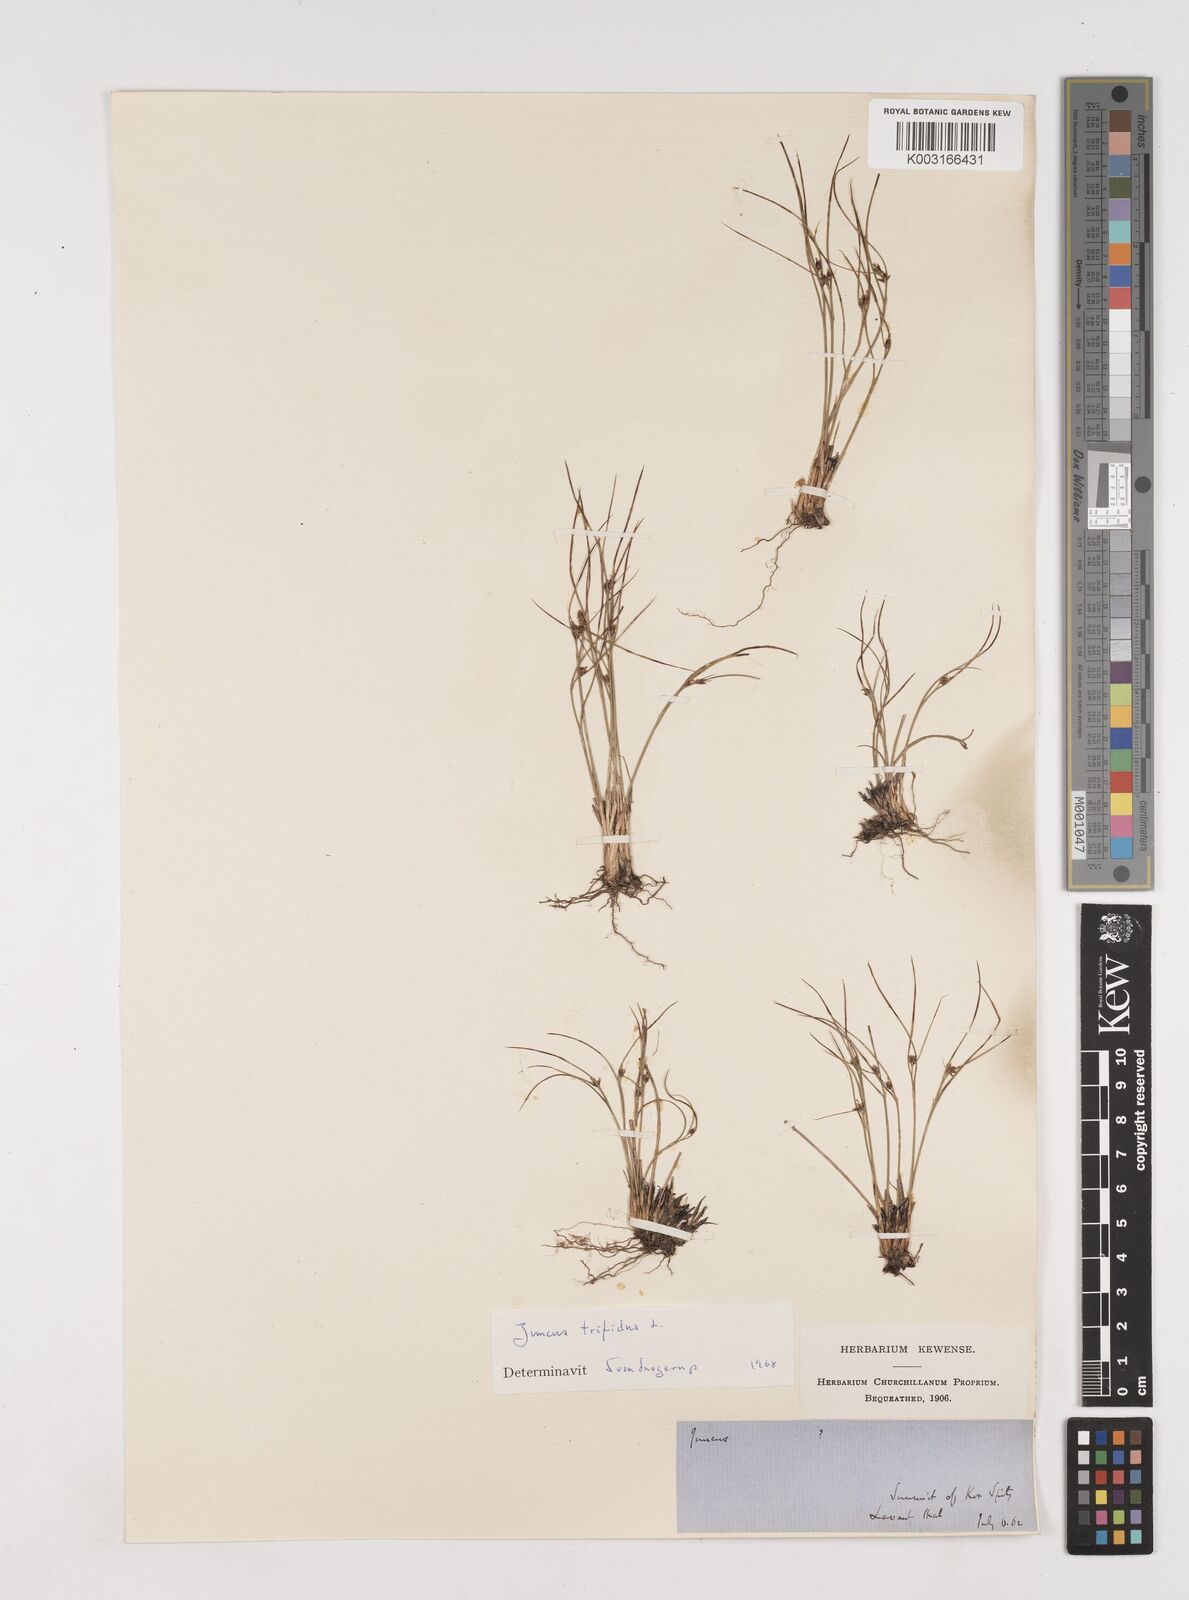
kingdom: Plantae
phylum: Tracheophyta
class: Liliopsida
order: Poales
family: Juncaceae
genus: Oreojuncus
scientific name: Oreojuncus trifidus
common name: Highland rush
